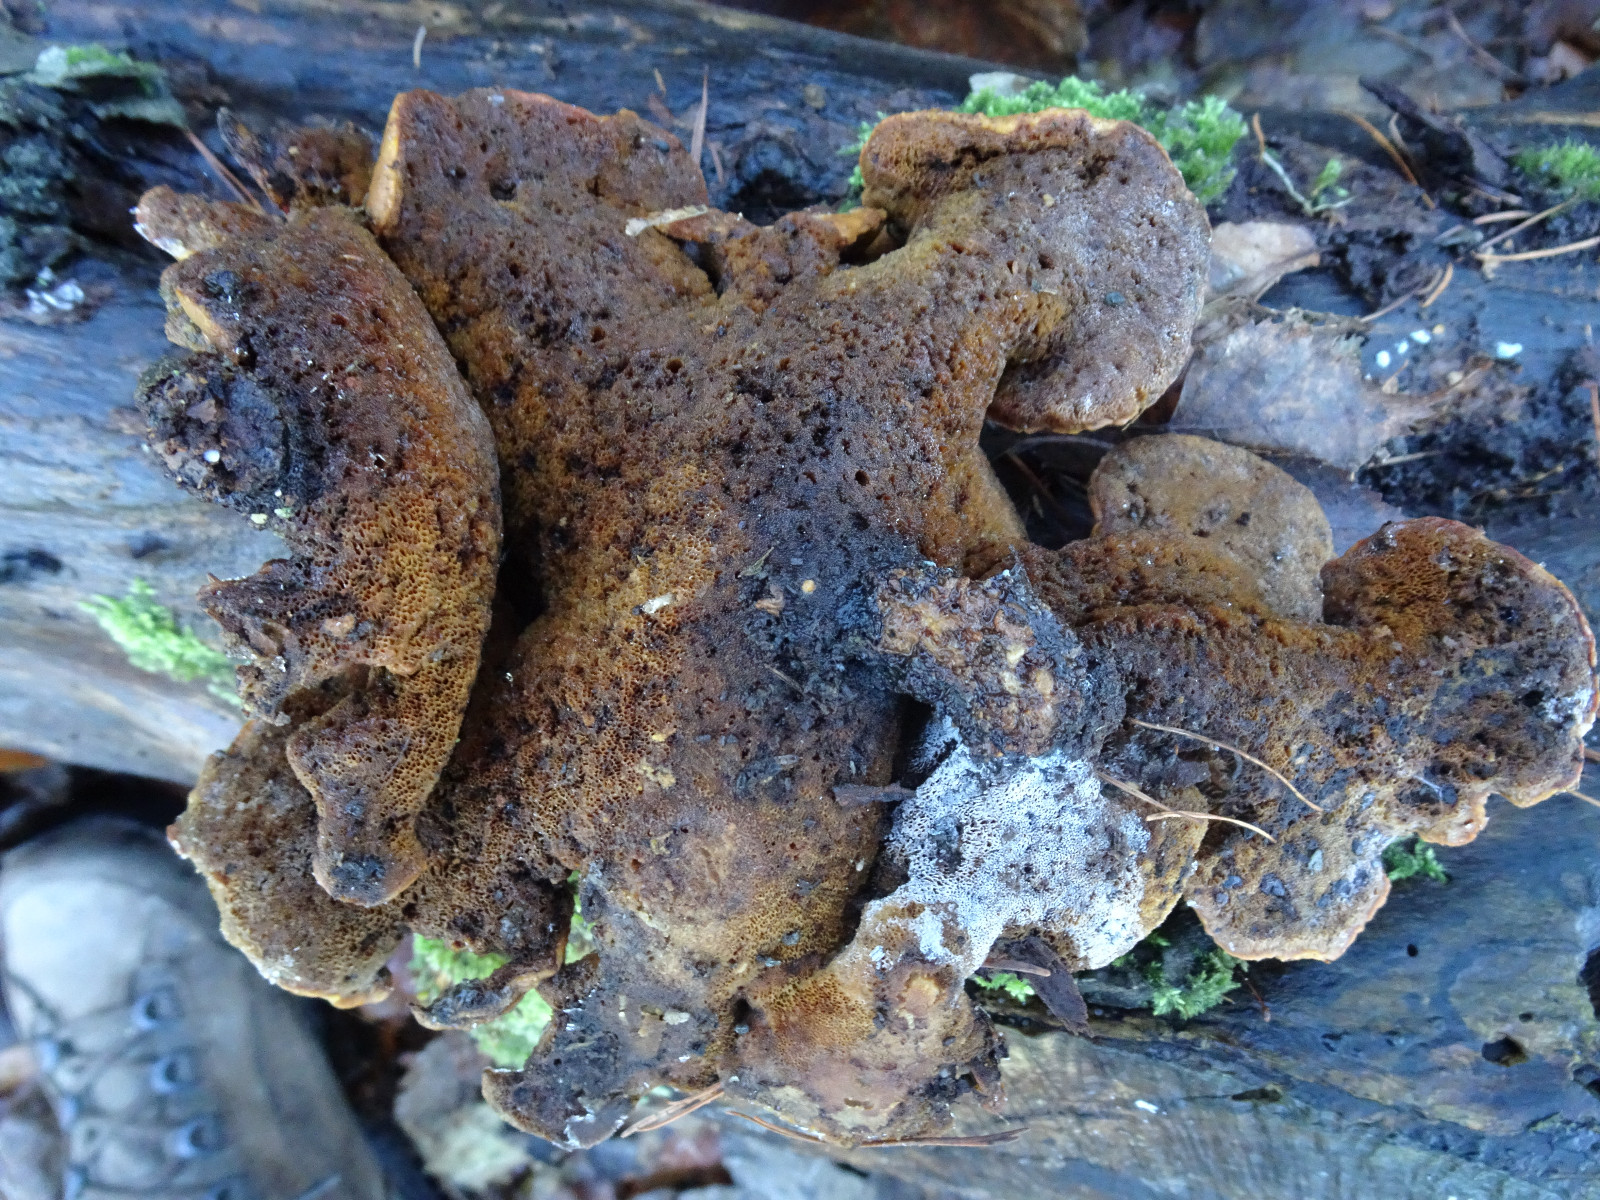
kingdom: Fungi
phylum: Basidiomycota
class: Agaricomycetes
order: Polyporales
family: Polyporaceae
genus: Cerioporus
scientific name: Cerioporus varius
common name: foranderlig stilkporesvamp
